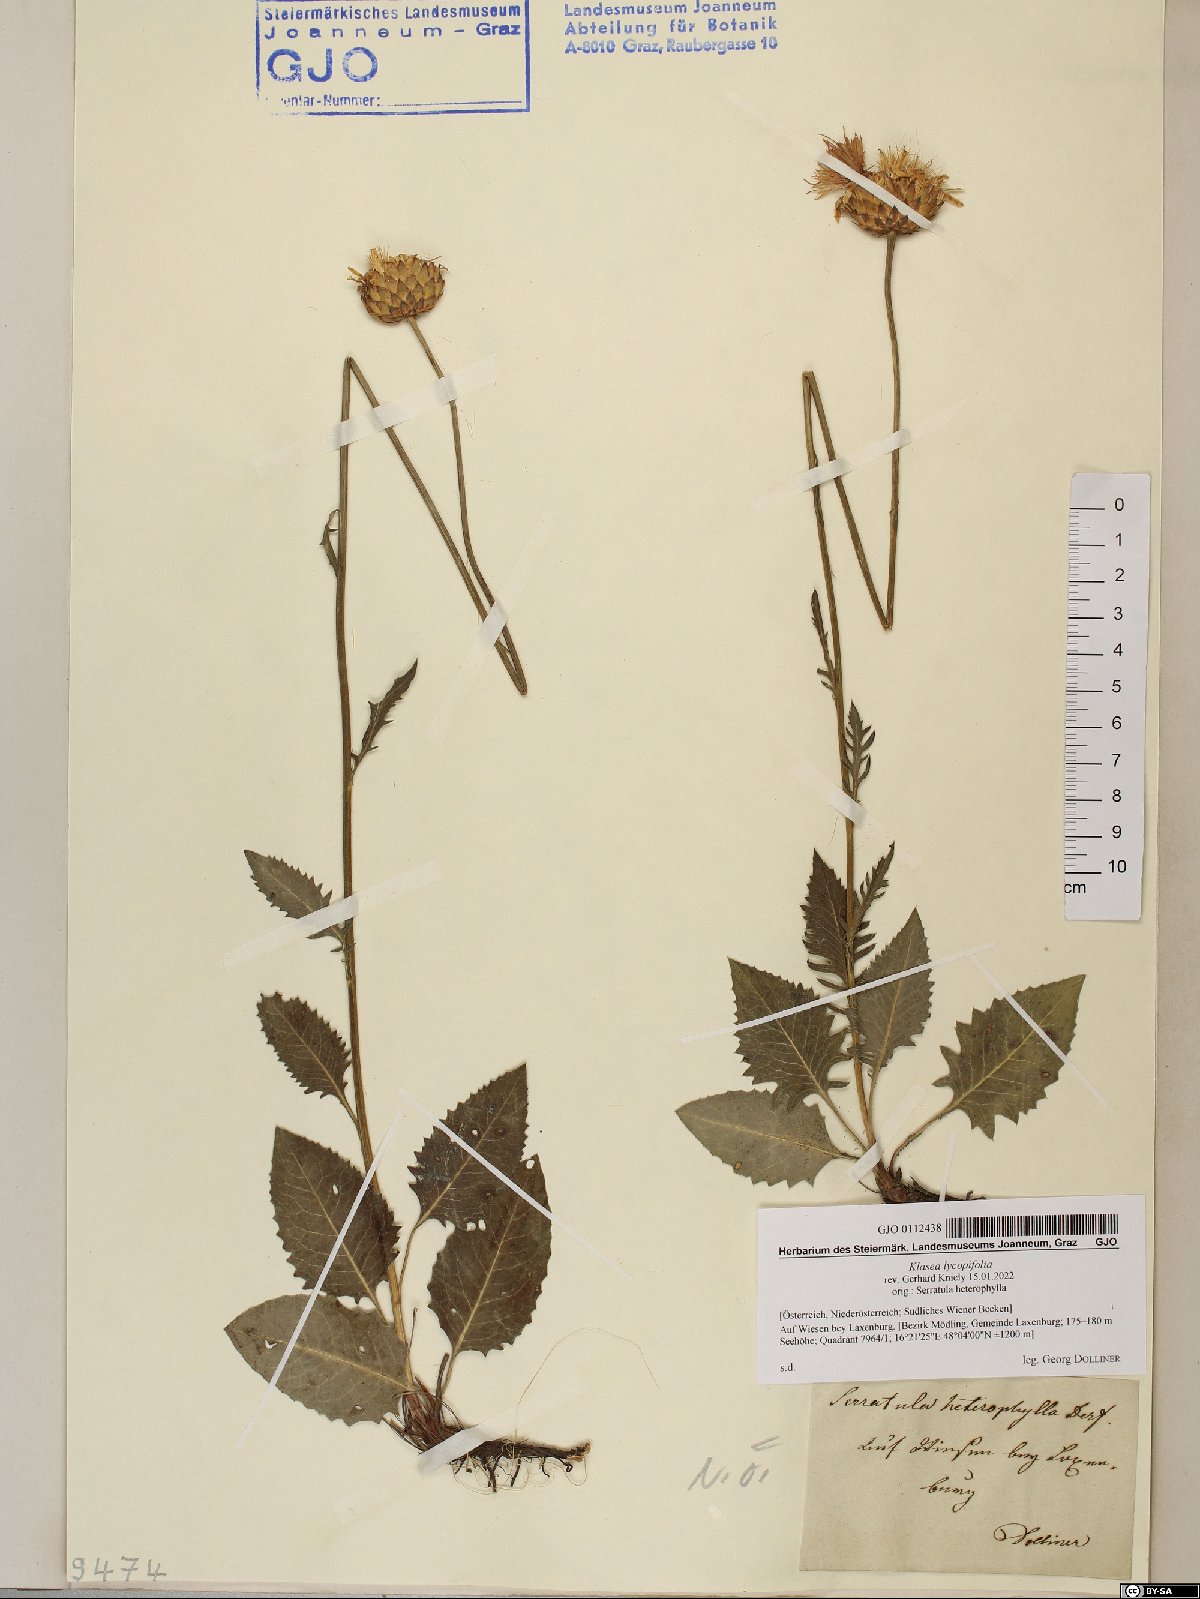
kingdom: Plantae
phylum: Tracheophyta
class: Magnoliopsida
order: Asterales
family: Asteraceae
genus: Klasea
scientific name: Klasea lycopifolia
